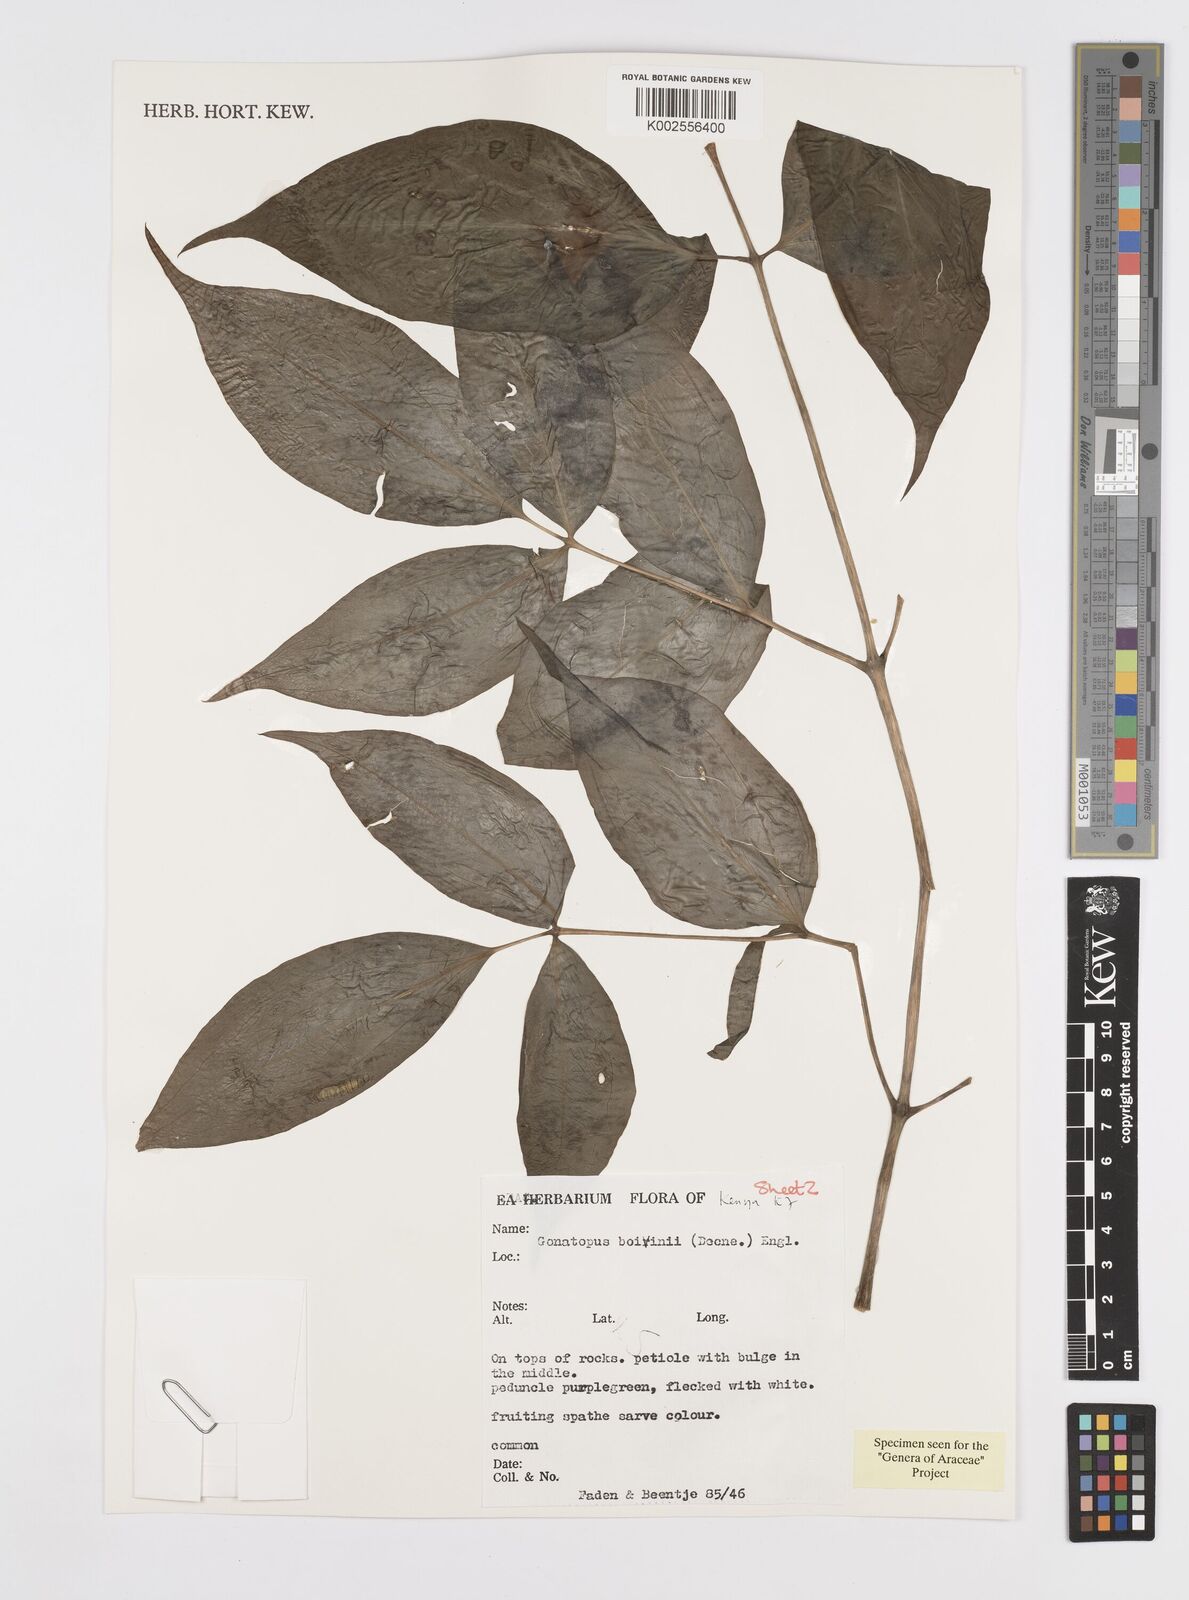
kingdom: Plantae
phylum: Tracheophyta
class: Liliopsida
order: Alismatales
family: Araceae
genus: Gonatopus
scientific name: Gonatopus boivinii
